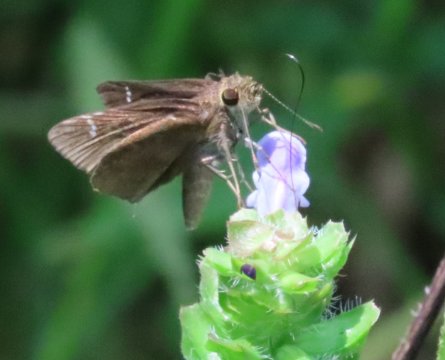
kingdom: Animalia
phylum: Arthropoda
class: Insecta
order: Lepidoptera
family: Hesperiidae
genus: Lerema
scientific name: Lerema accius
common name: Clouded Skipper
